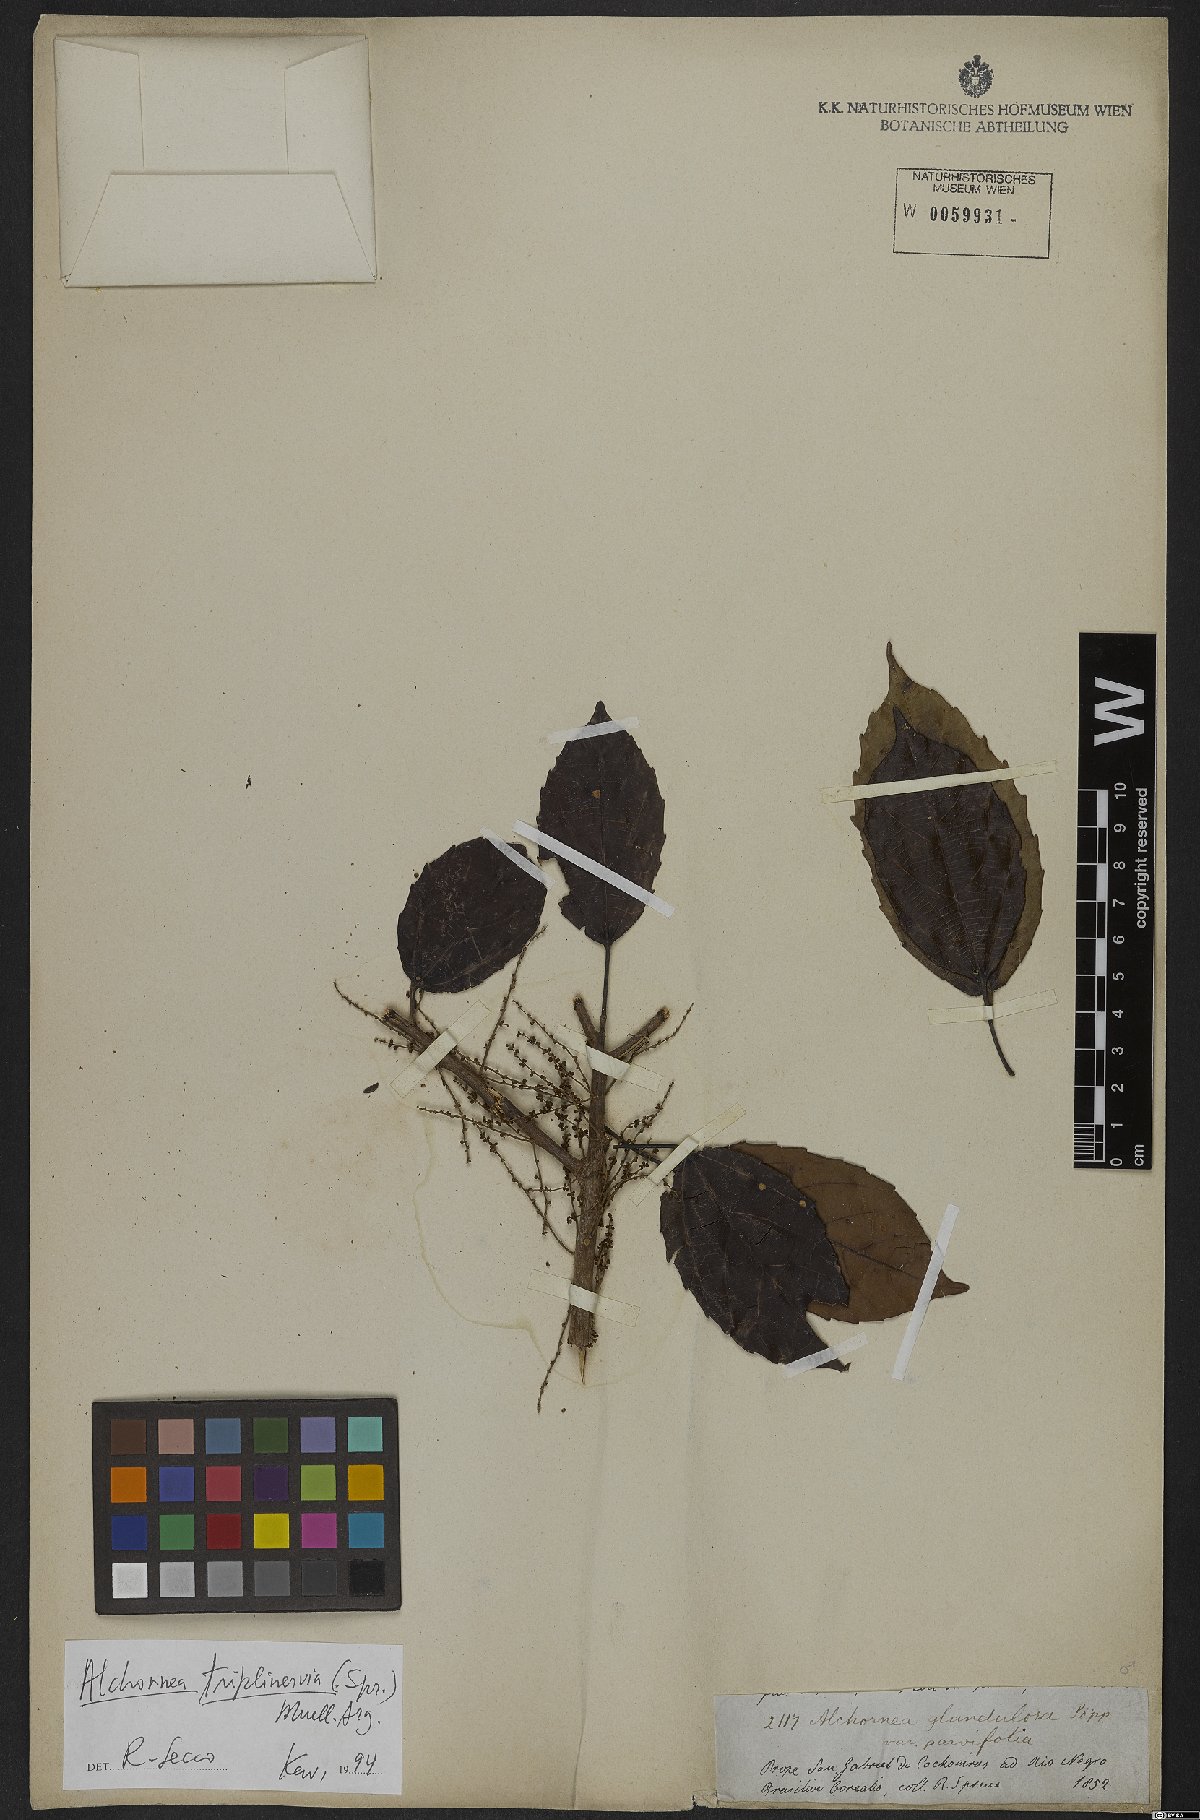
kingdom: Plantae
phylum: Tracheophyta
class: Magnoliopsida
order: Malpighiales
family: Euphorbiaceae
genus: Alchornea
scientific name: Alchornea triplinervia
